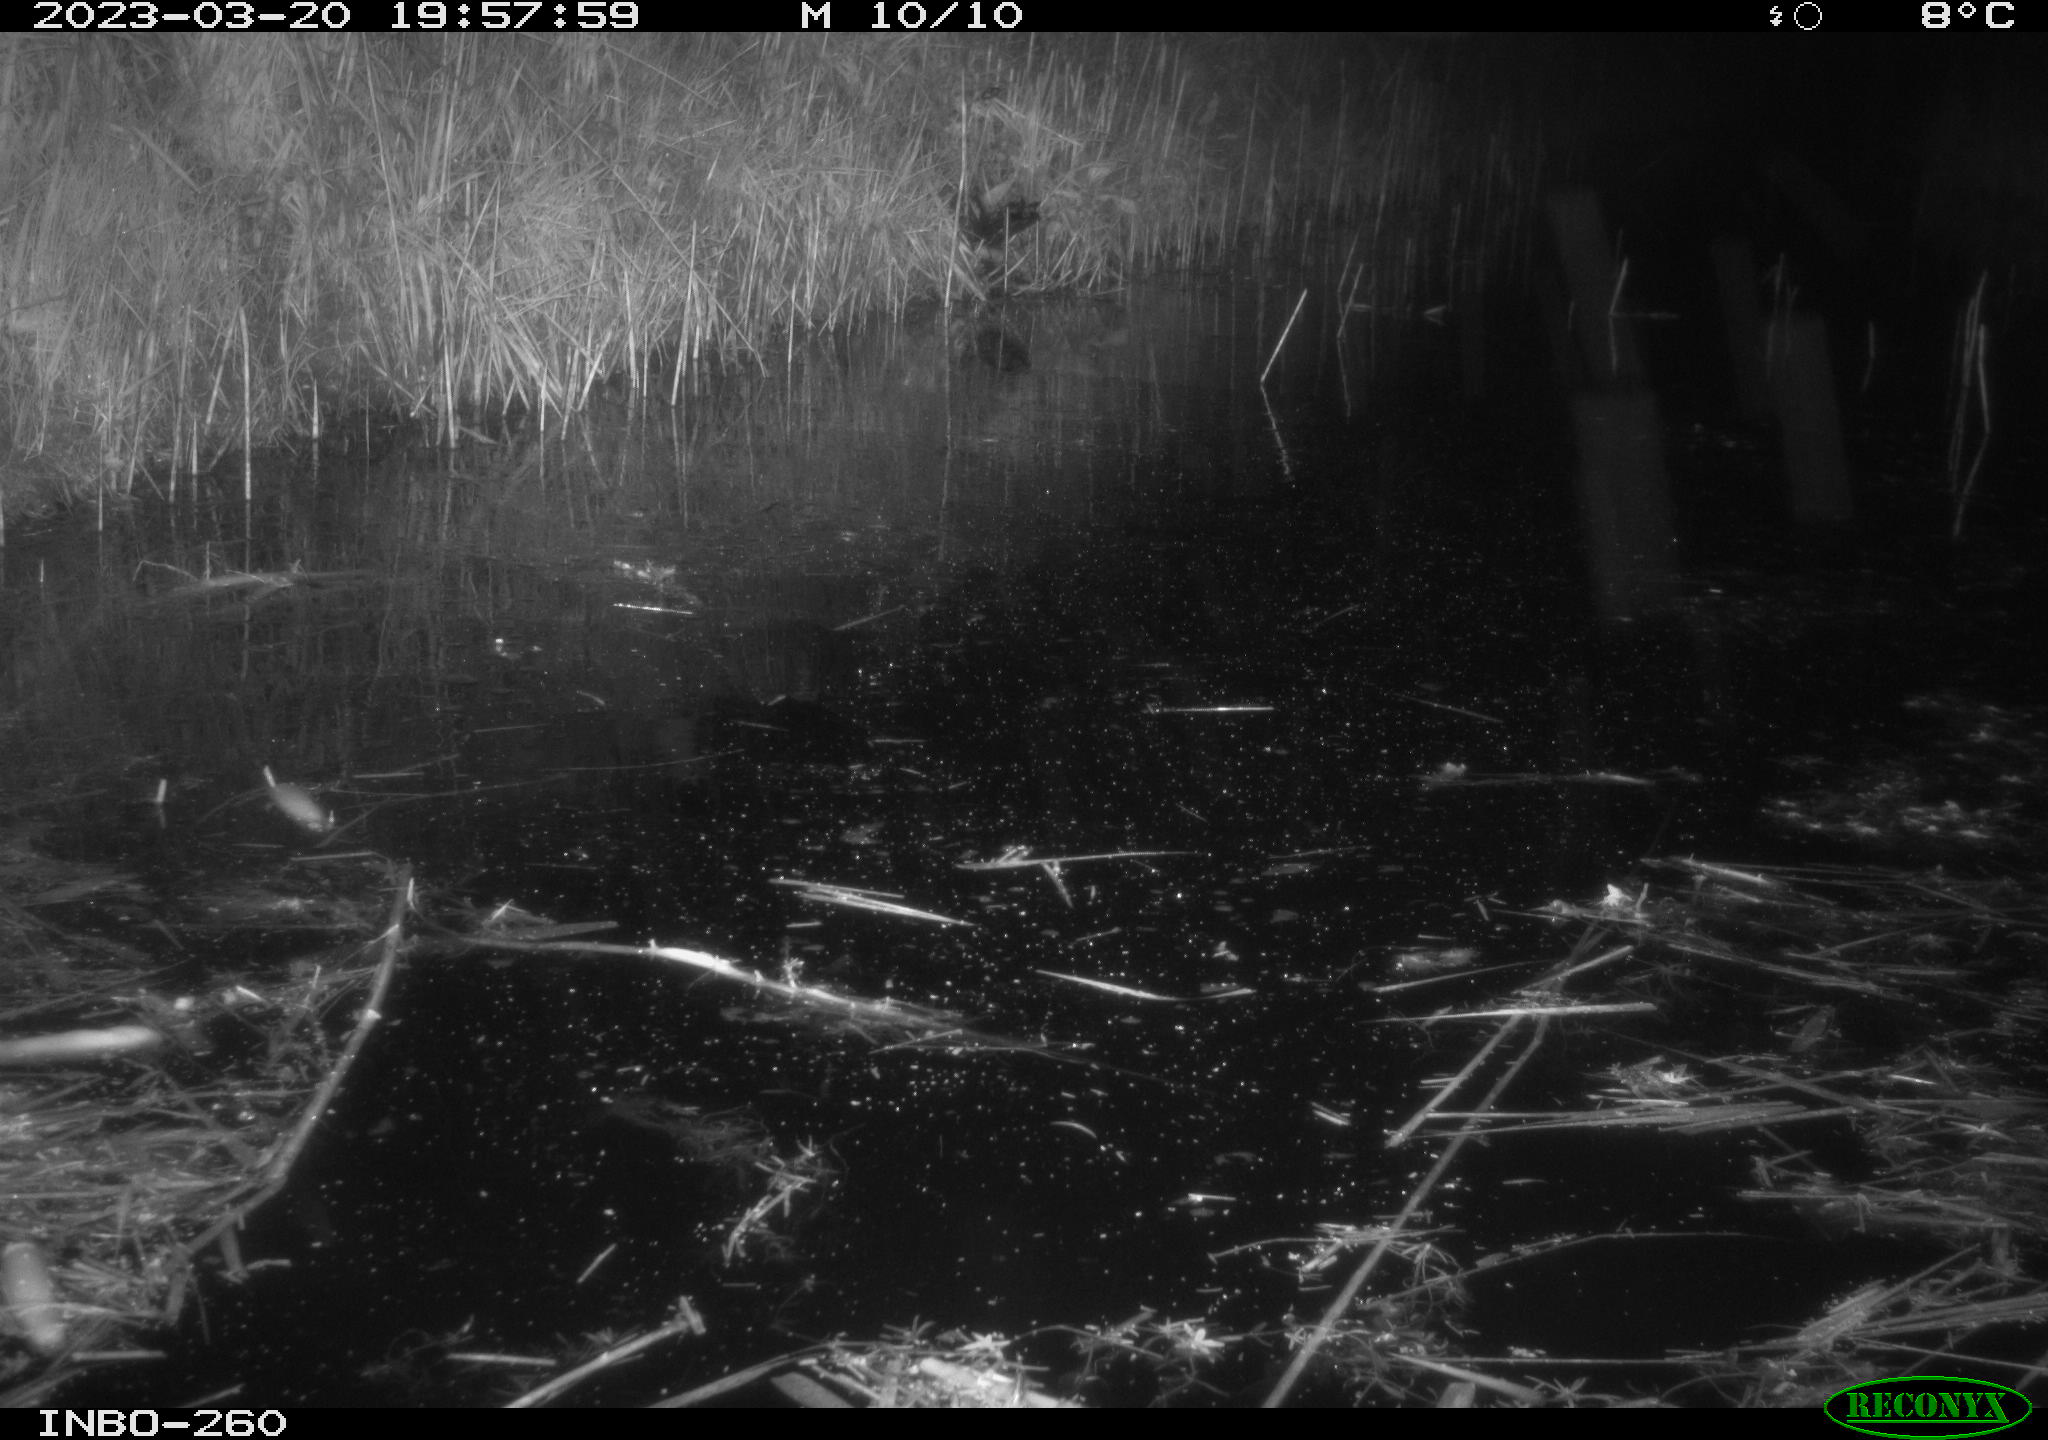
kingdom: Animalia
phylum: Chordata
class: Mammalia
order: Rodentia
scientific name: Rodentia
